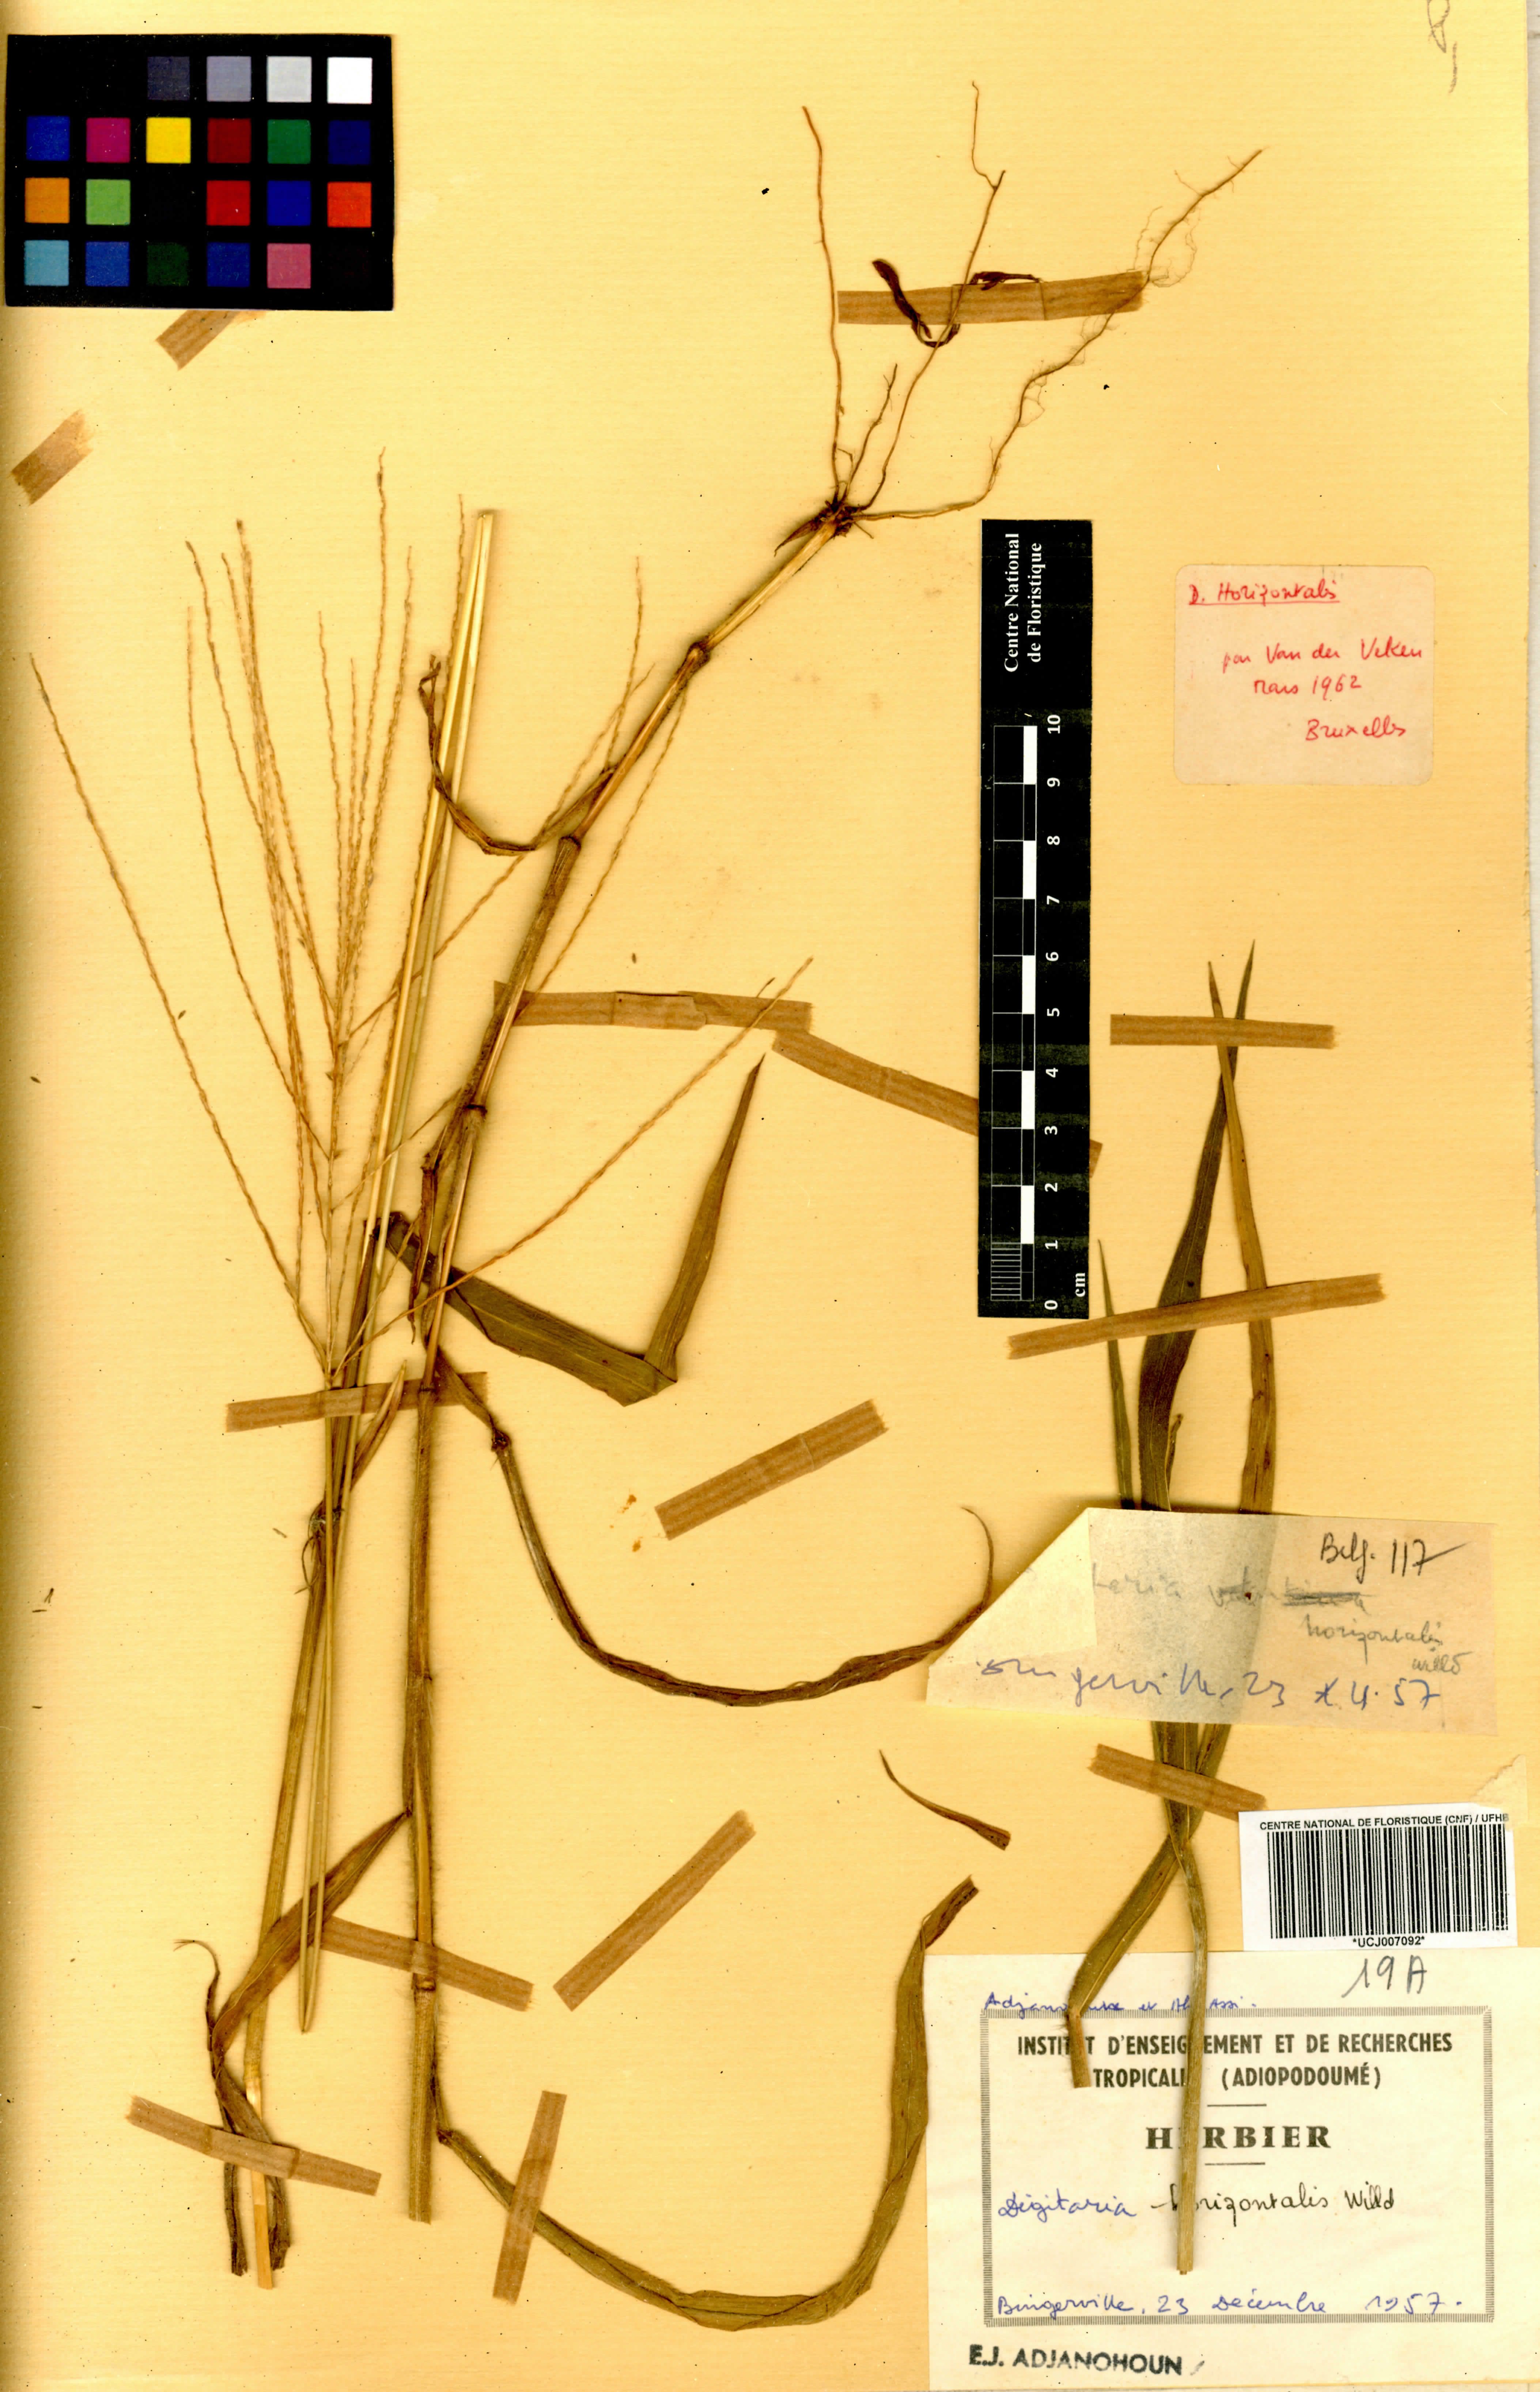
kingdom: Plantae
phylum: Tracheophyta
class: Liliopsida
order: Poales
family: Poaceae
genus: Digitaria
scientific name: Digitaria horizontalis
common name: Jamaican crabgrass
